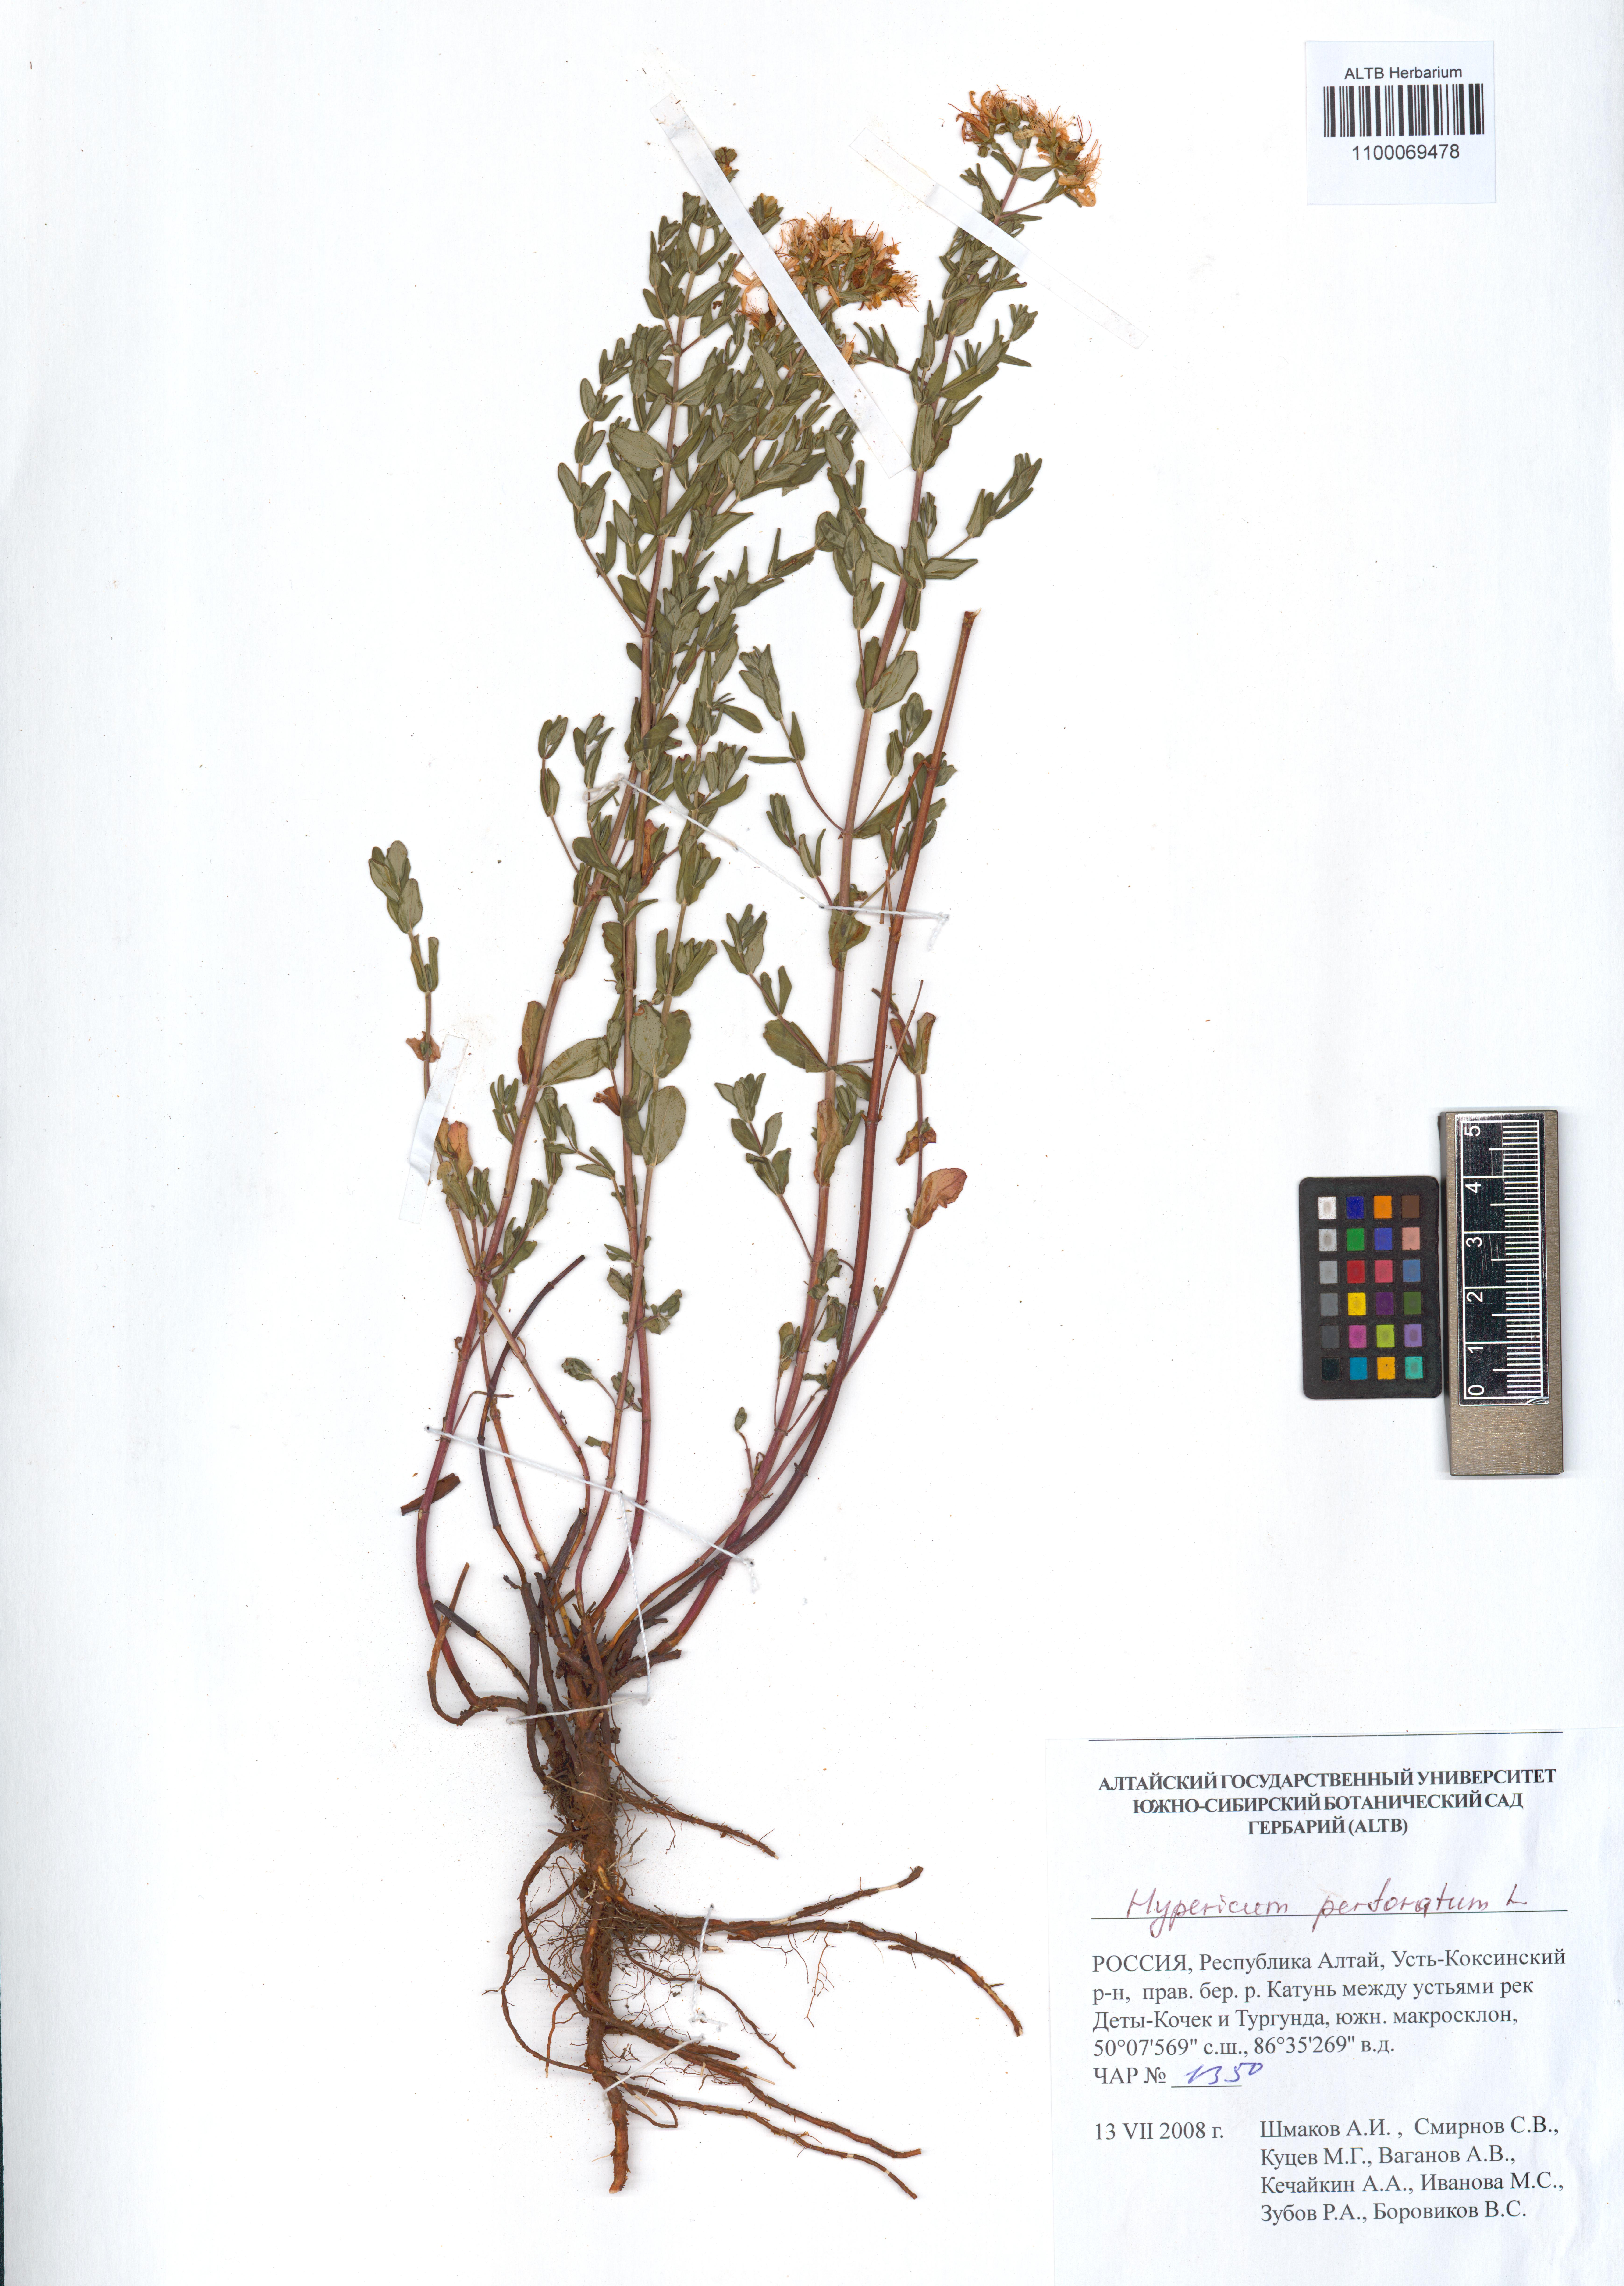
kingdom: Plantae
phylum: Tracheophyta
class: Magnoliopsida
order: Malpighiales
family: Hypericaceae
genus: Hypericum
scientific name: Hypericum perforatum
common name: Common st. johnswort
